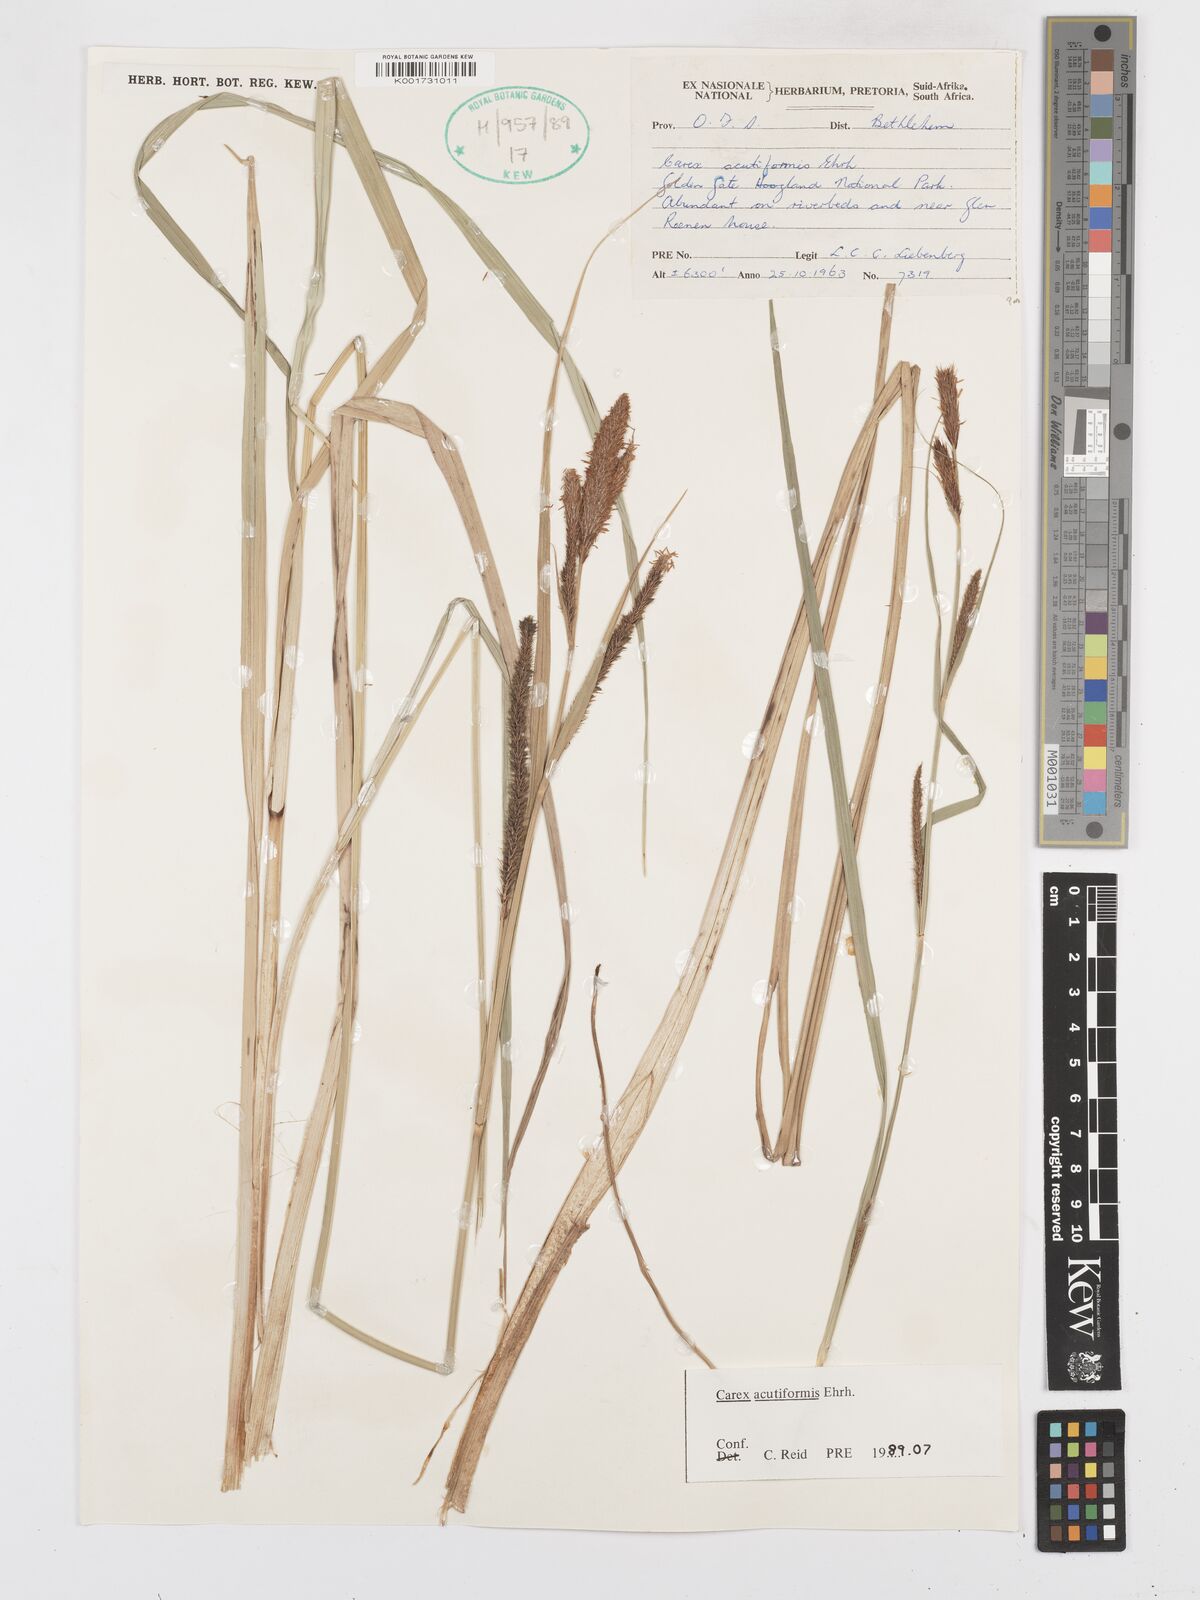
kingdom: Plantae
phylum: Tracheophyta
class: Liliopsida
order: Poales
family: Cyperaceae
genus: Carex
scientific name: Carex acutiformis
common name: Lesser pond-sedge
